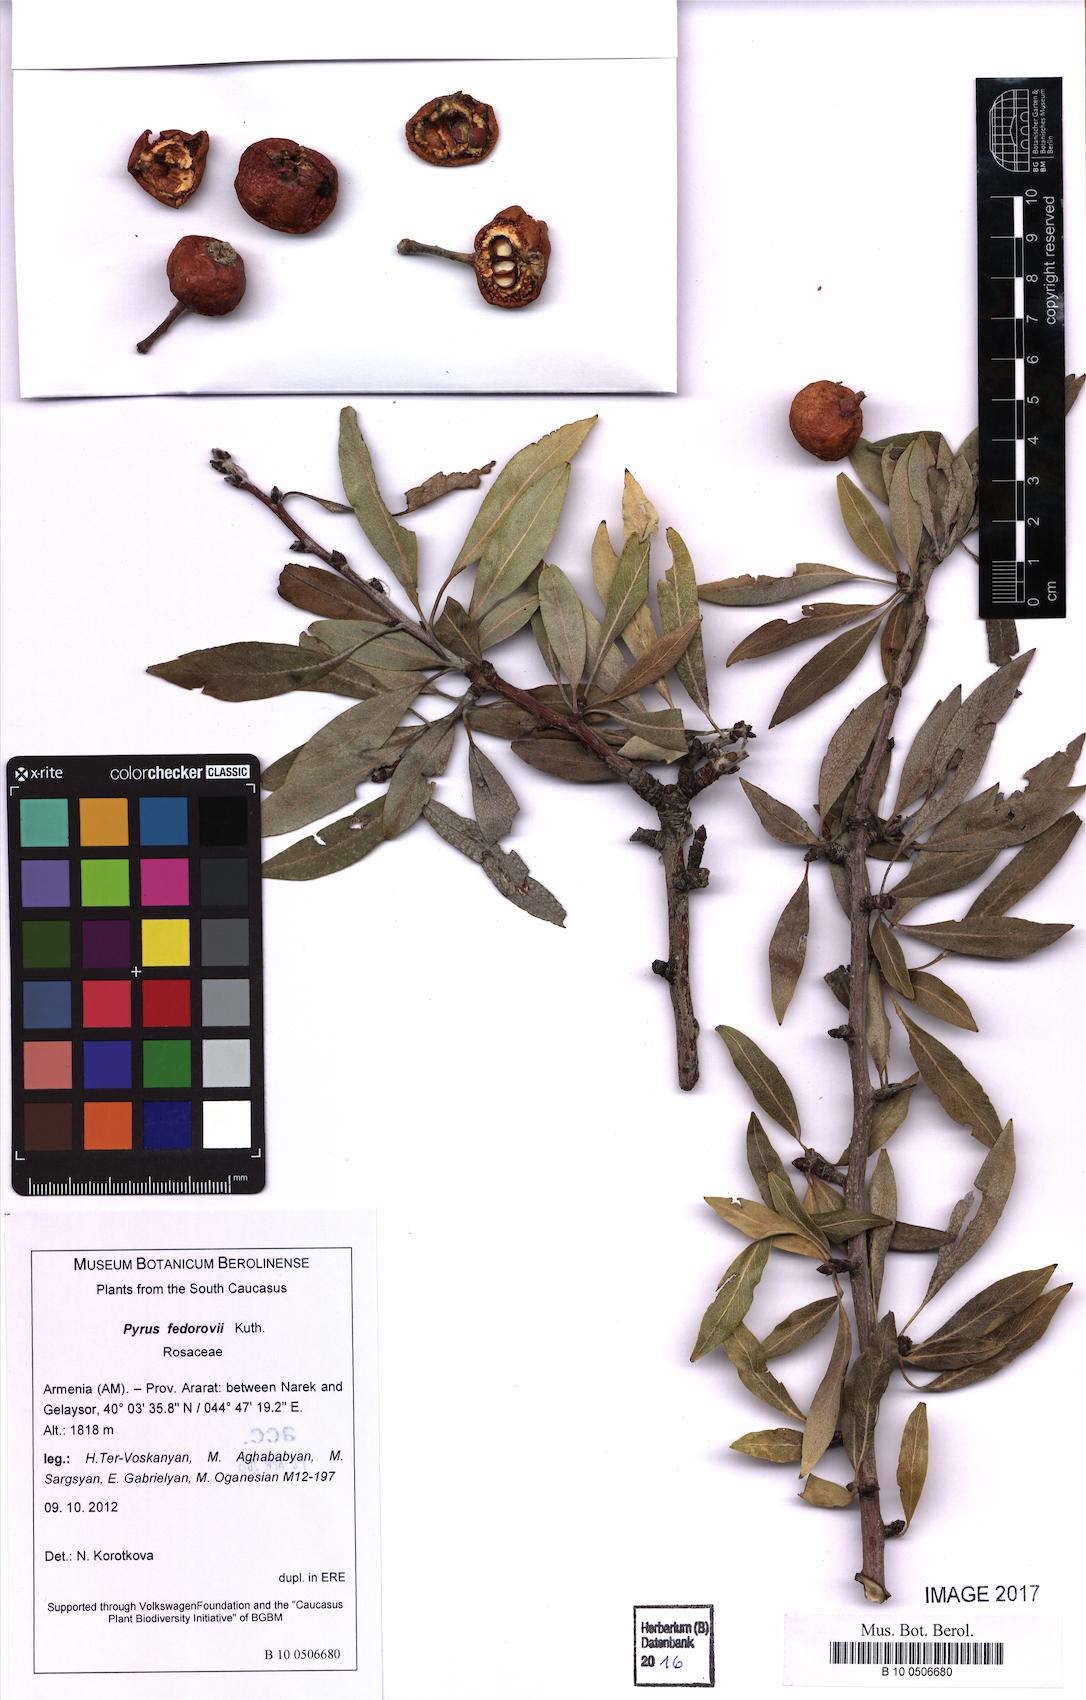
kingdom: Plantae
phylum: Tracheophyta
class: Magnoliopsida
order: Rosales
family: Rosaceae
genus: Pyrus
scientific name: Pyrus fedorovii
